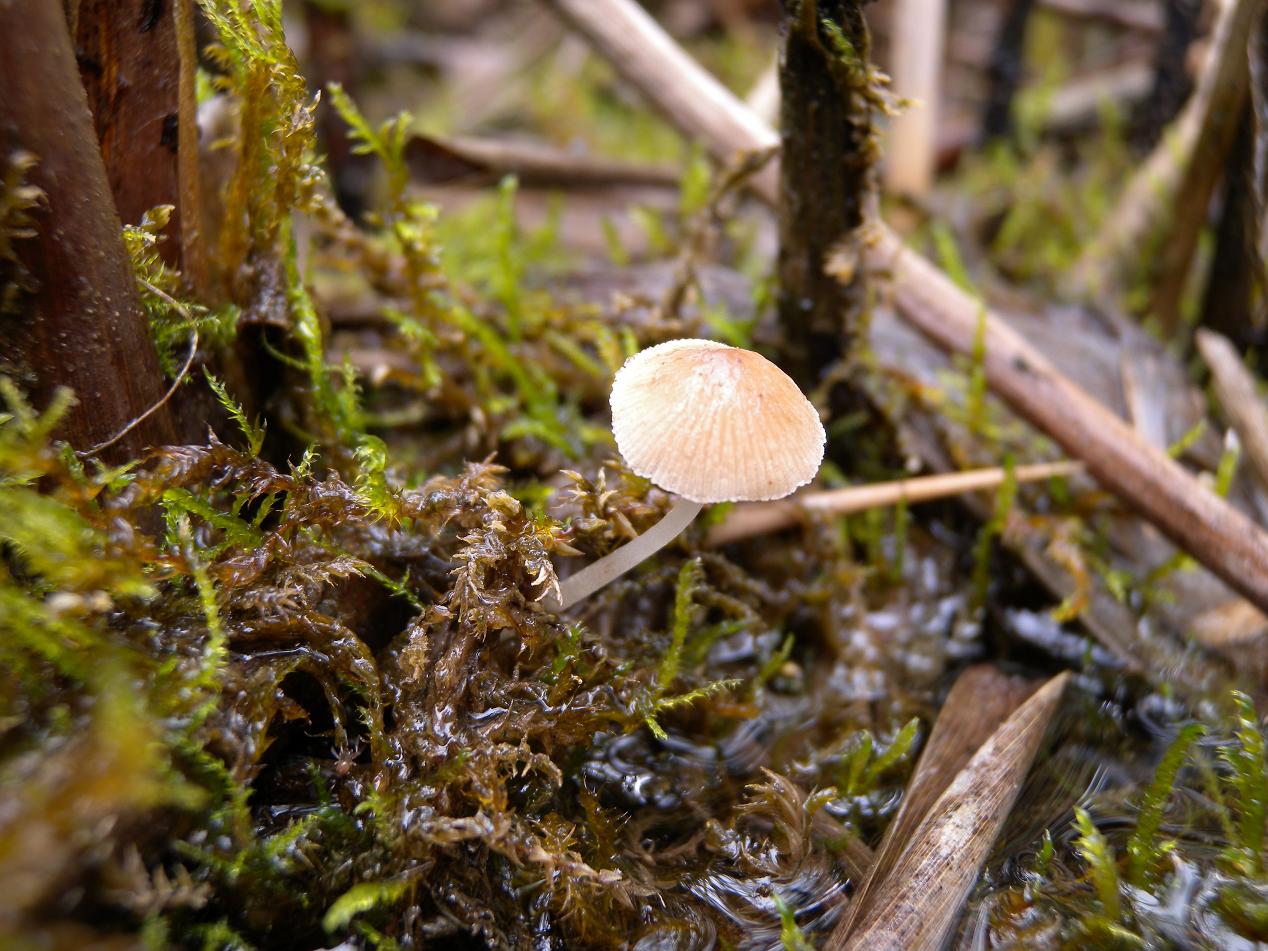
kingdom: Fungi
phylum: Basidiomycota
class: Agaricomycetes
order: Agaricales
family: Psathyrellaceae
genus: Candolleomyces
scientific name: Candolleomyces typhae
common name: dunhammer-mørkhat
